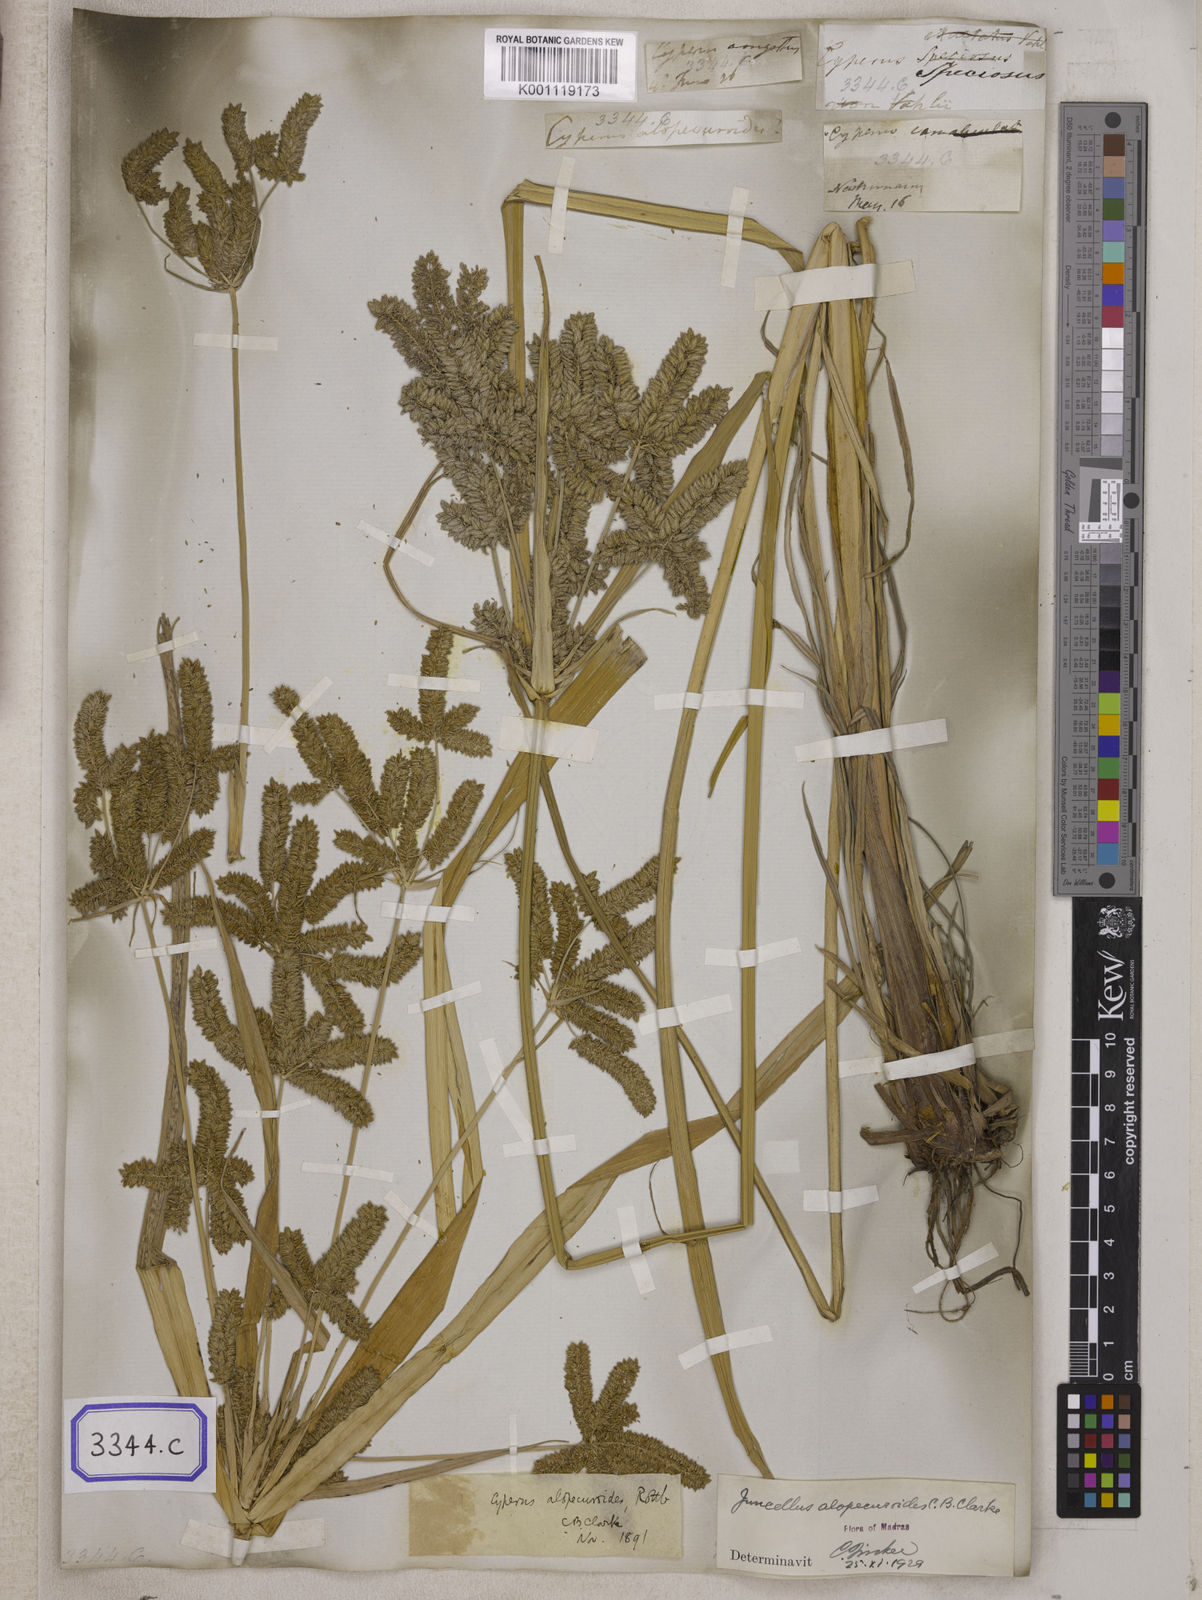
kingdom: Plantae
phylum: Tracheophyta
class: Liliopsida
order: Poales
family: Cyperaceae
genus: Cyperus
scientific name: Cyperus
